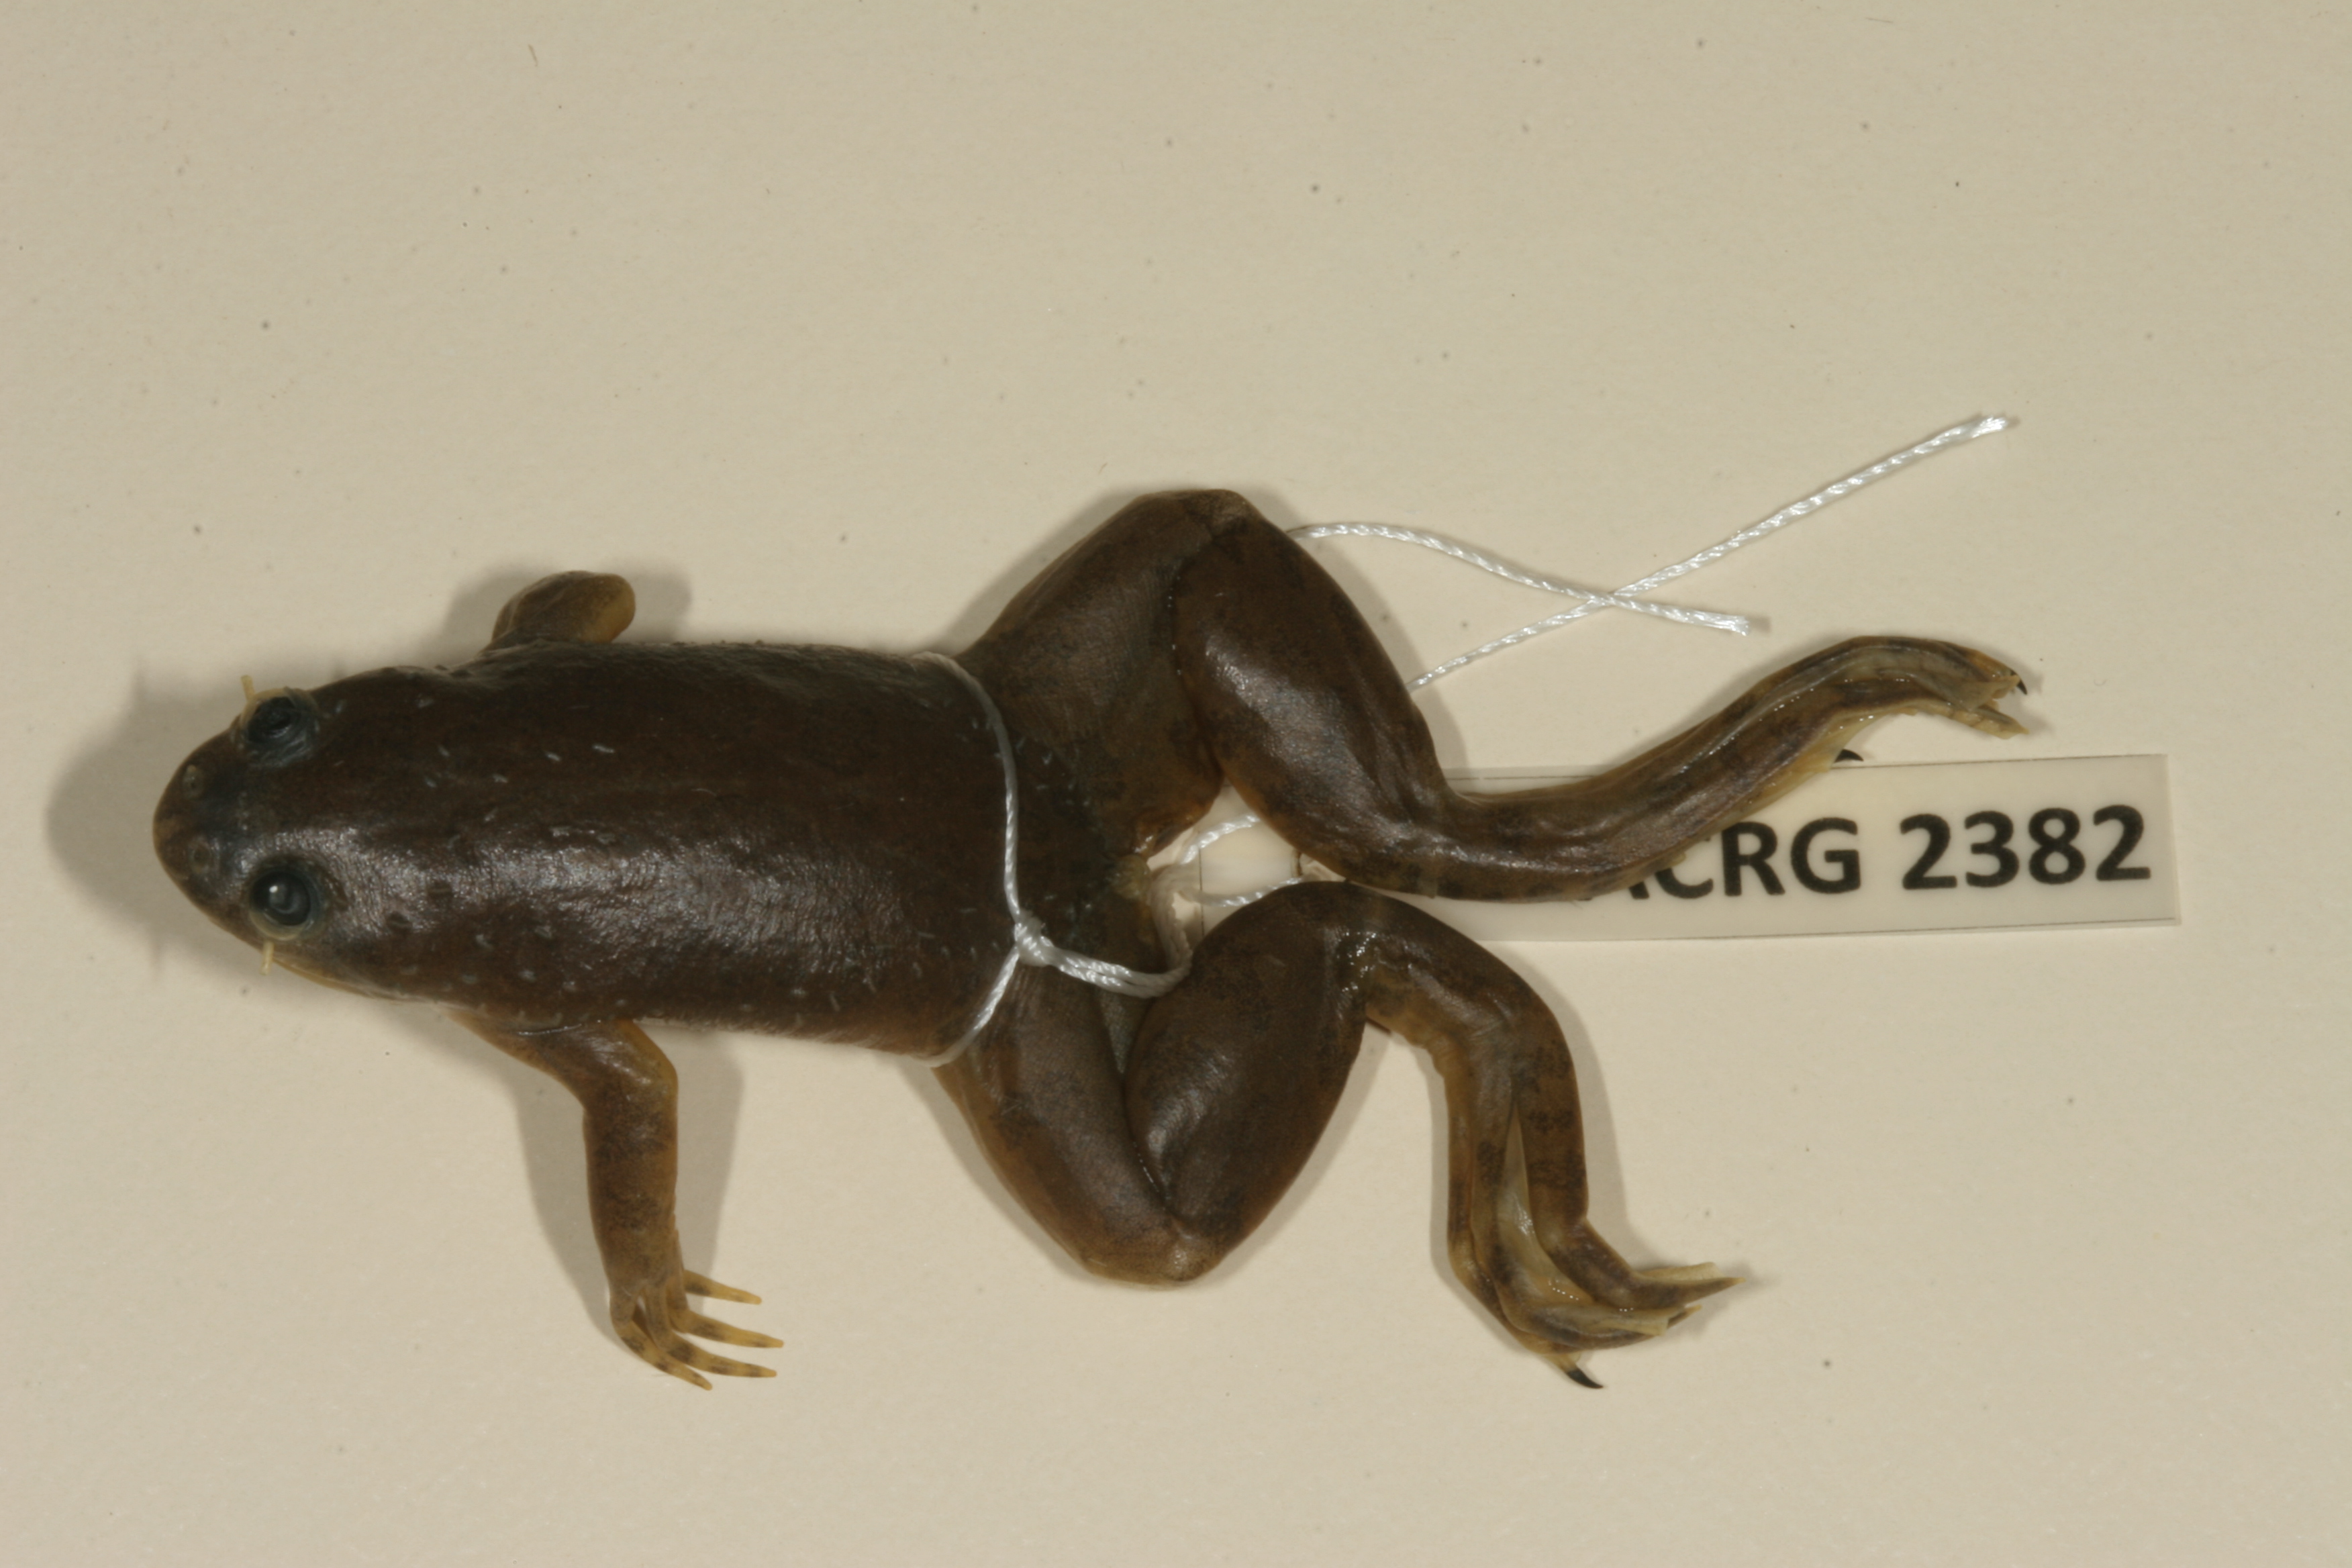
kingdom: Animalia
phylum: Chordata
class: Amphibia
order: Anura
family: Pipidae
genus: Xenopus
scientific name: Xenopus muelleri
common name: Muller's clawed frog
